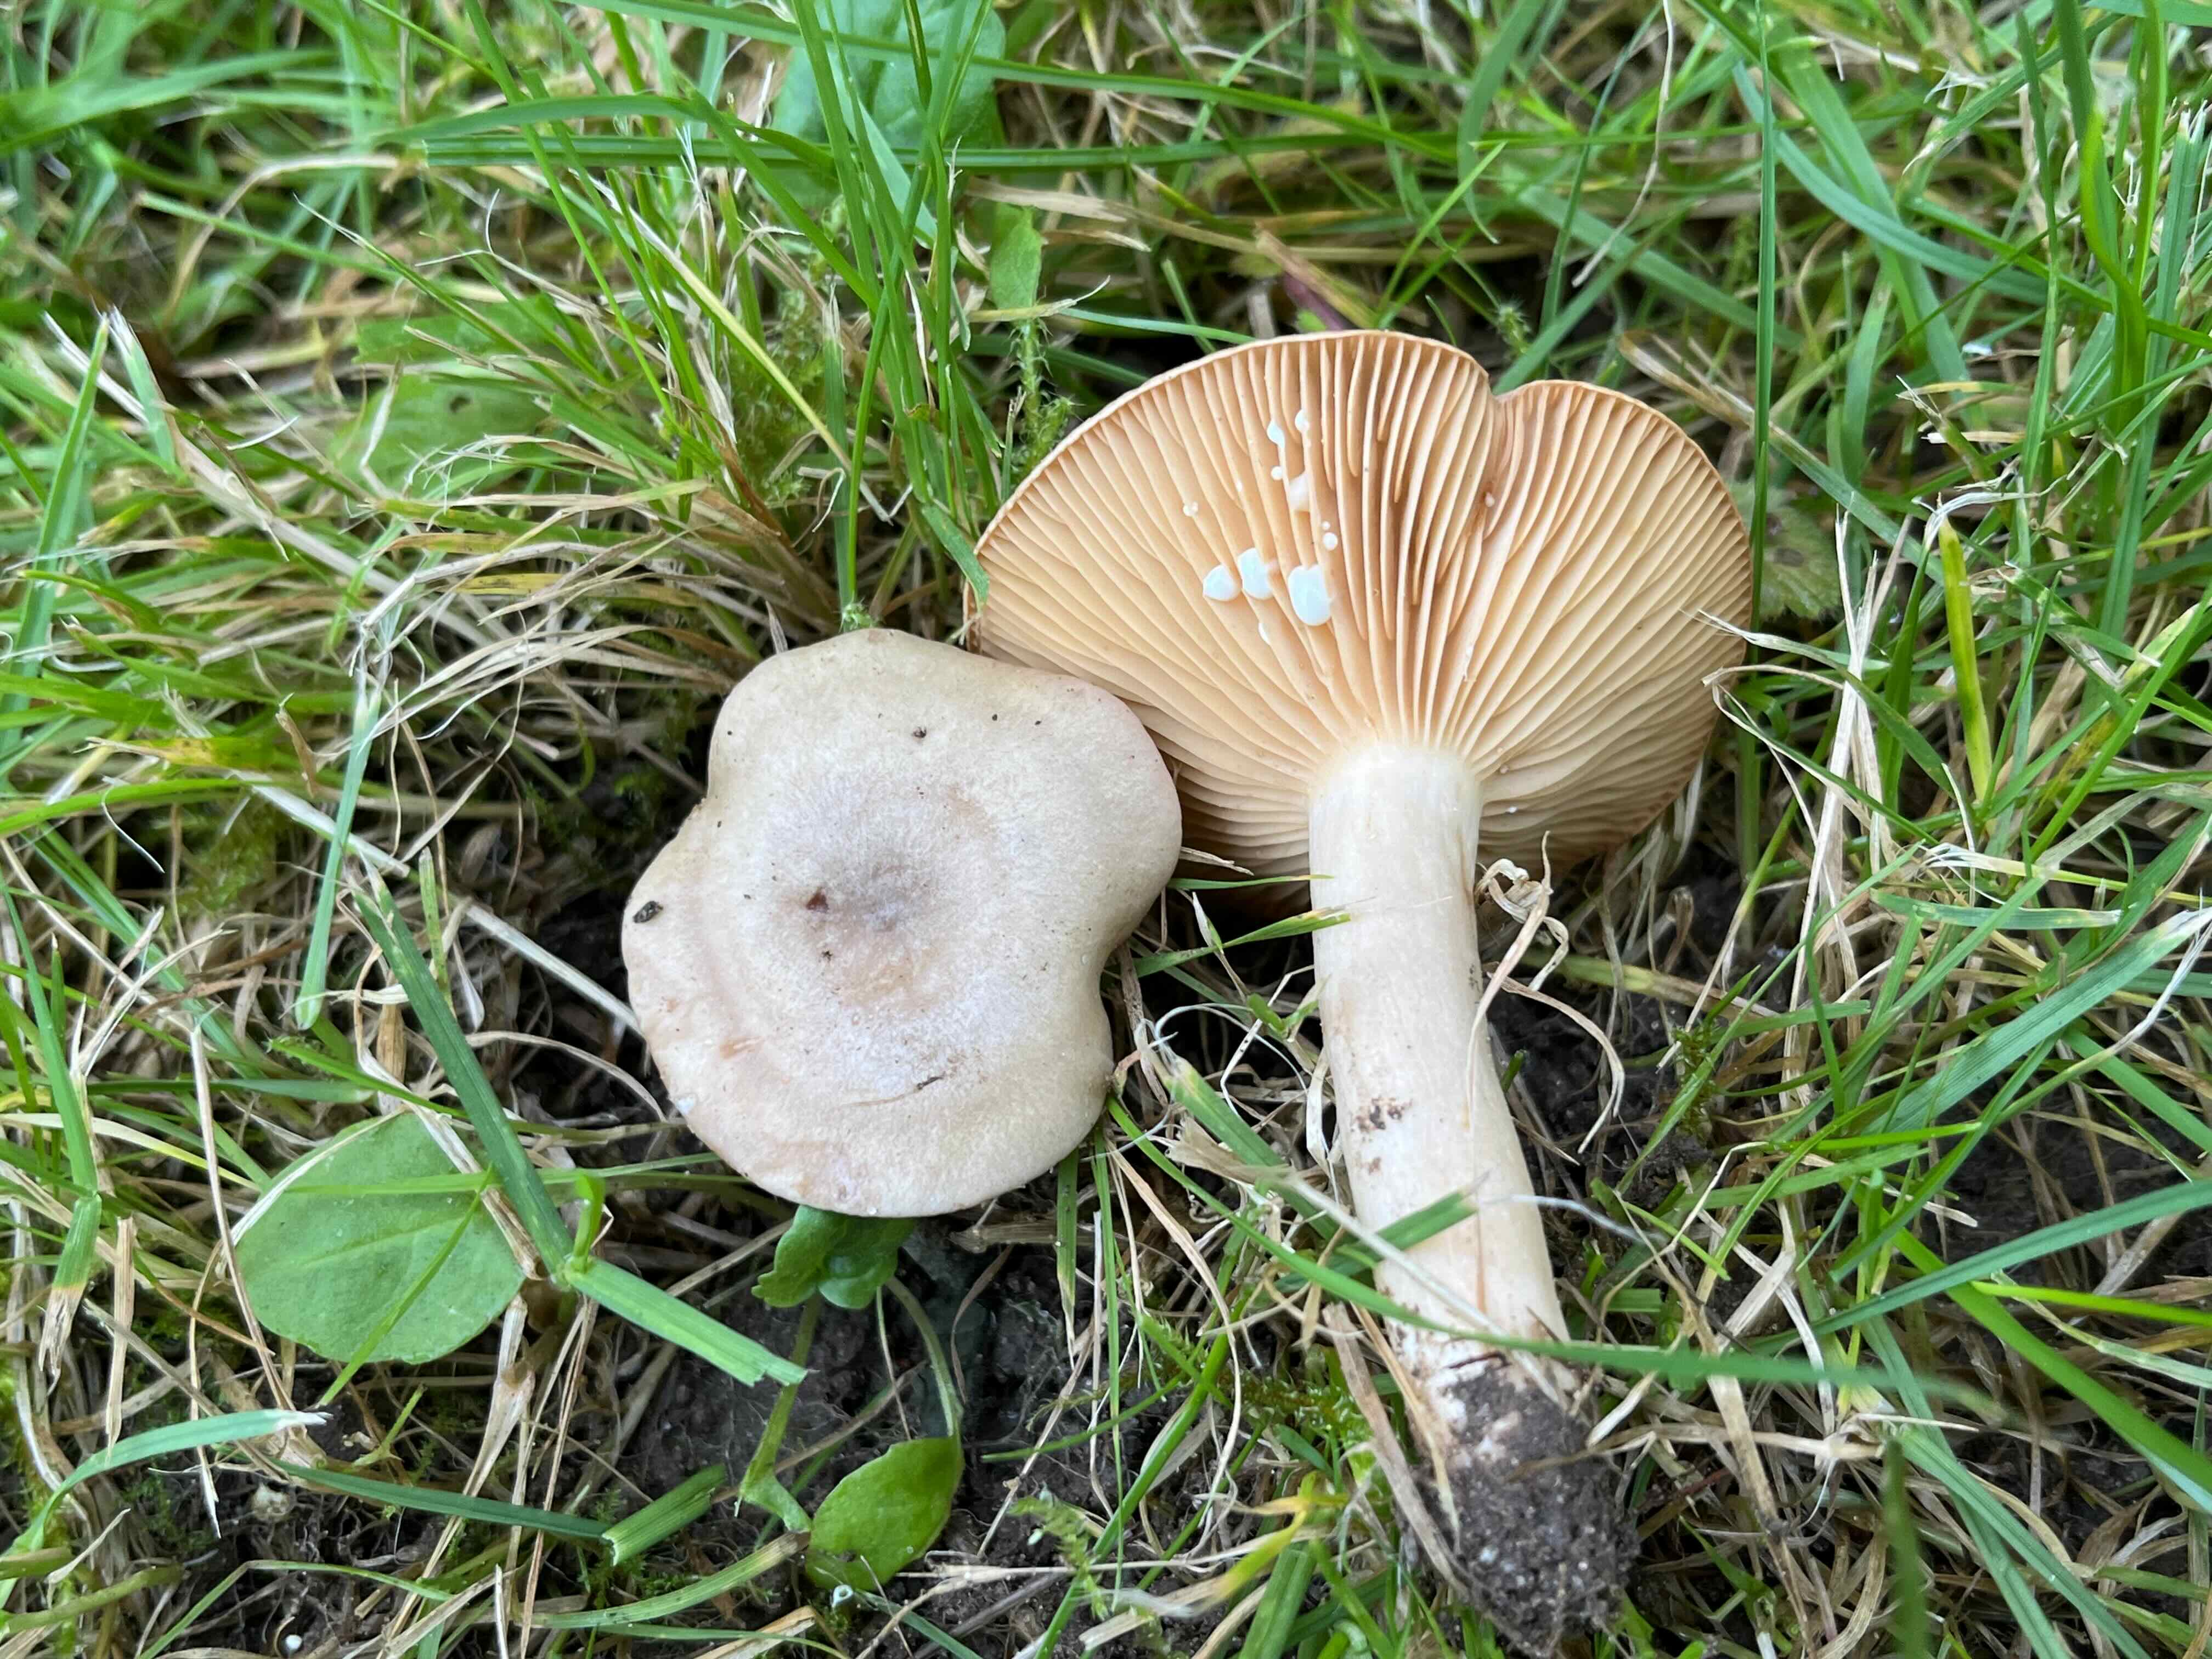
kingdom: Fungi
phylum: Basidiomycota
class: Agaricomycetes
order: Russulales
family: Russulaceae
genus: Lactarius
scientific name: Lactarius pyrogalus
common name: hassel-mælkehat
